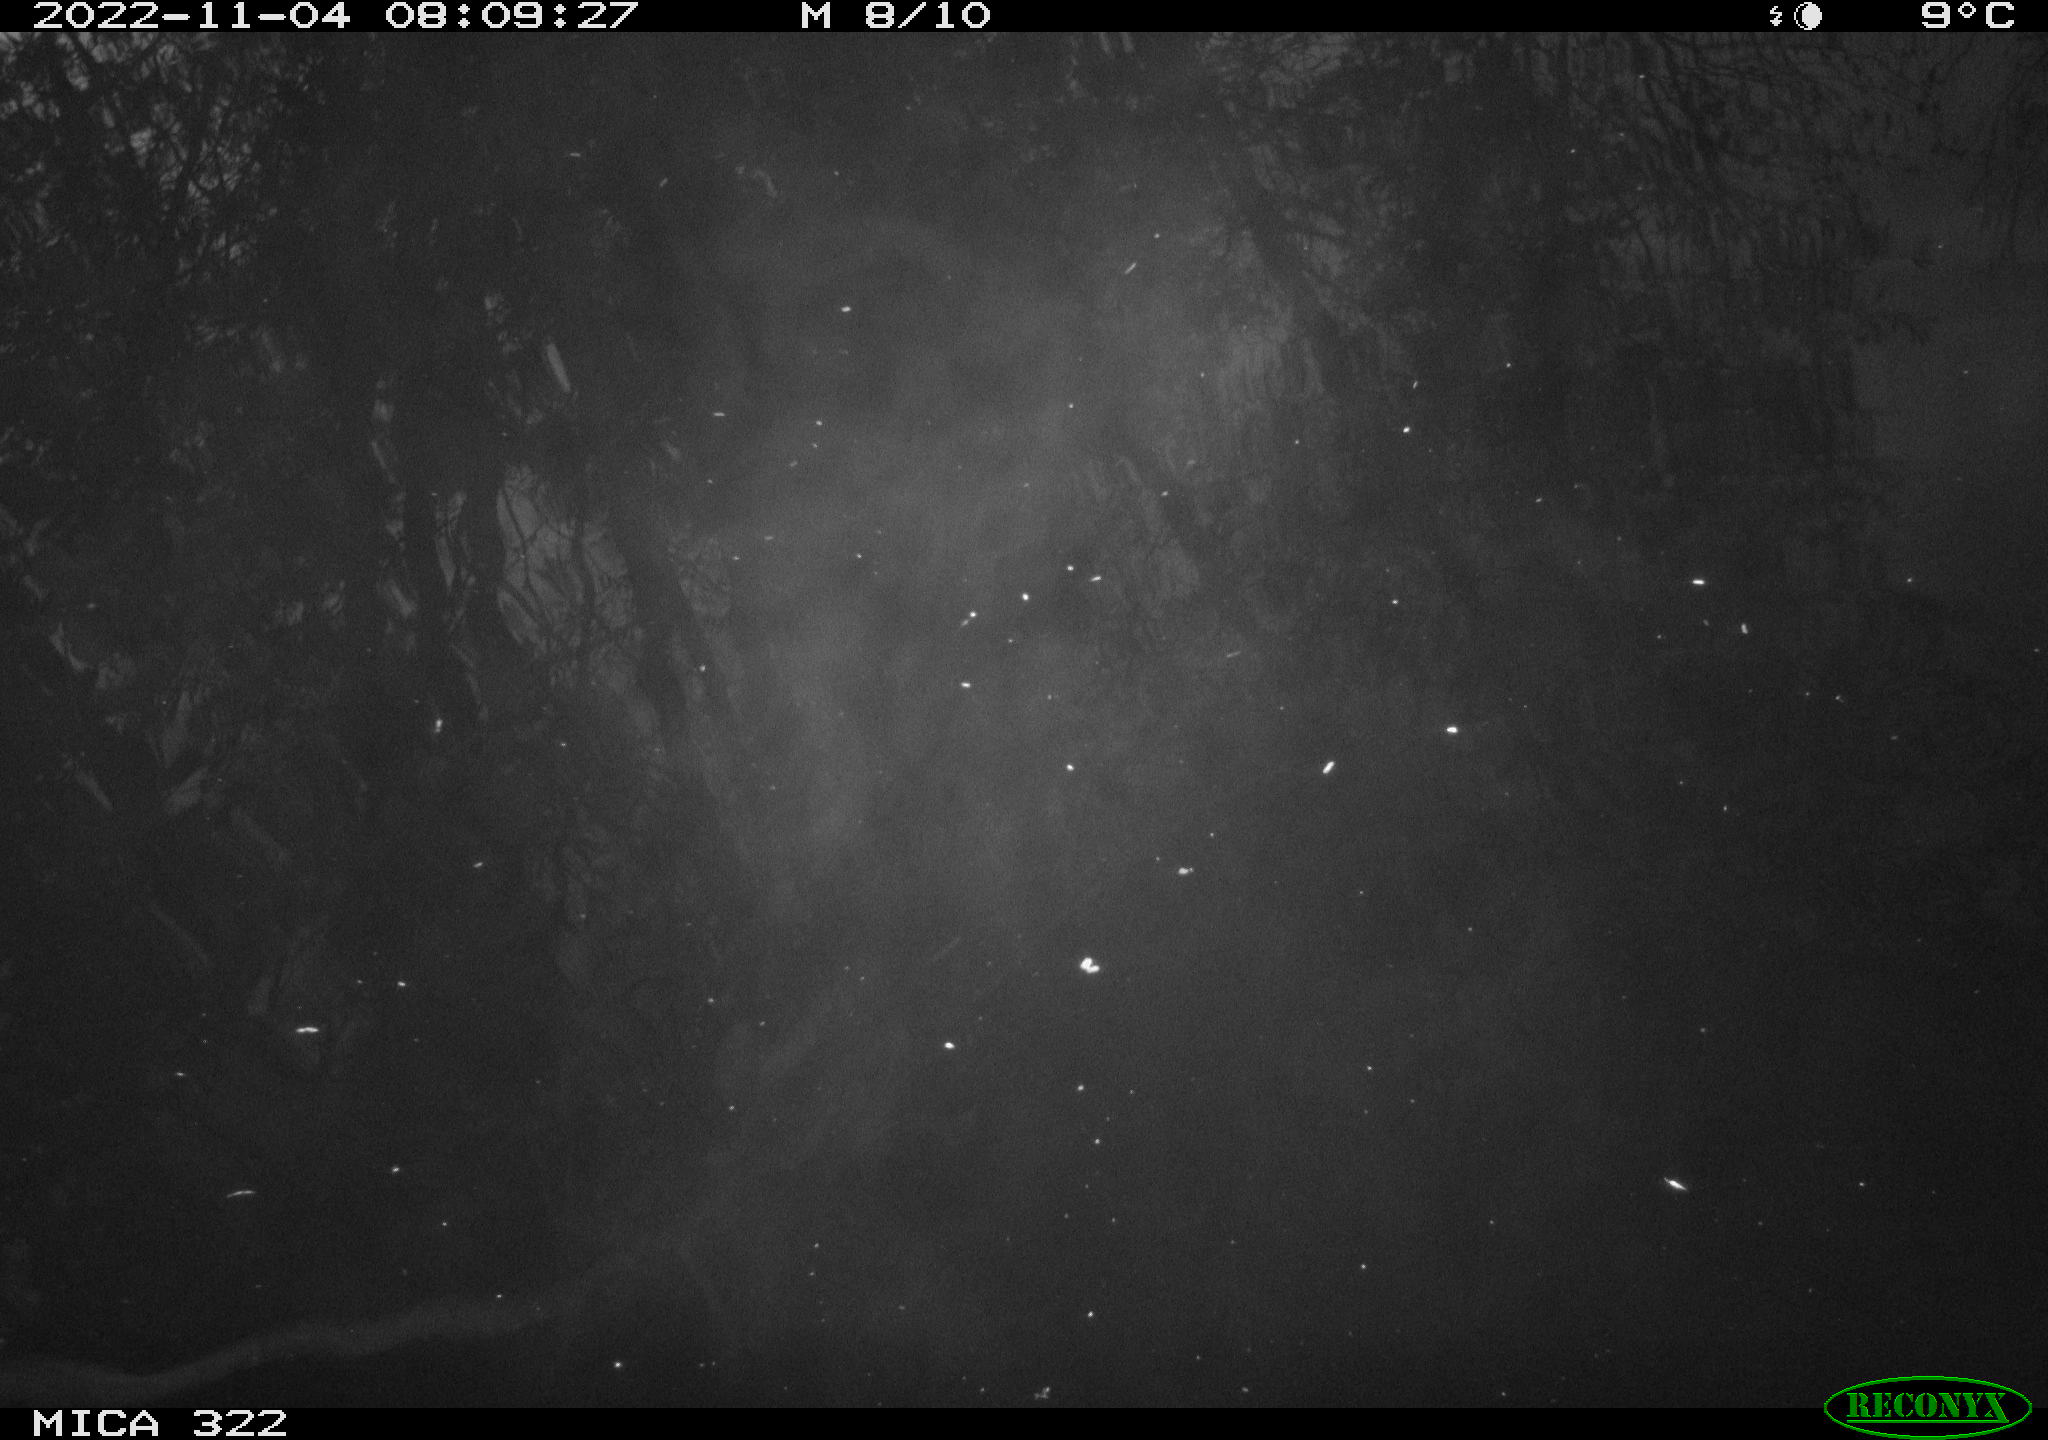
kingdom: Animalia
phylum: Chordata
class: Aves
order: Anseriformes
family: Anatidae
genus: Anas
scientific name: Anas
